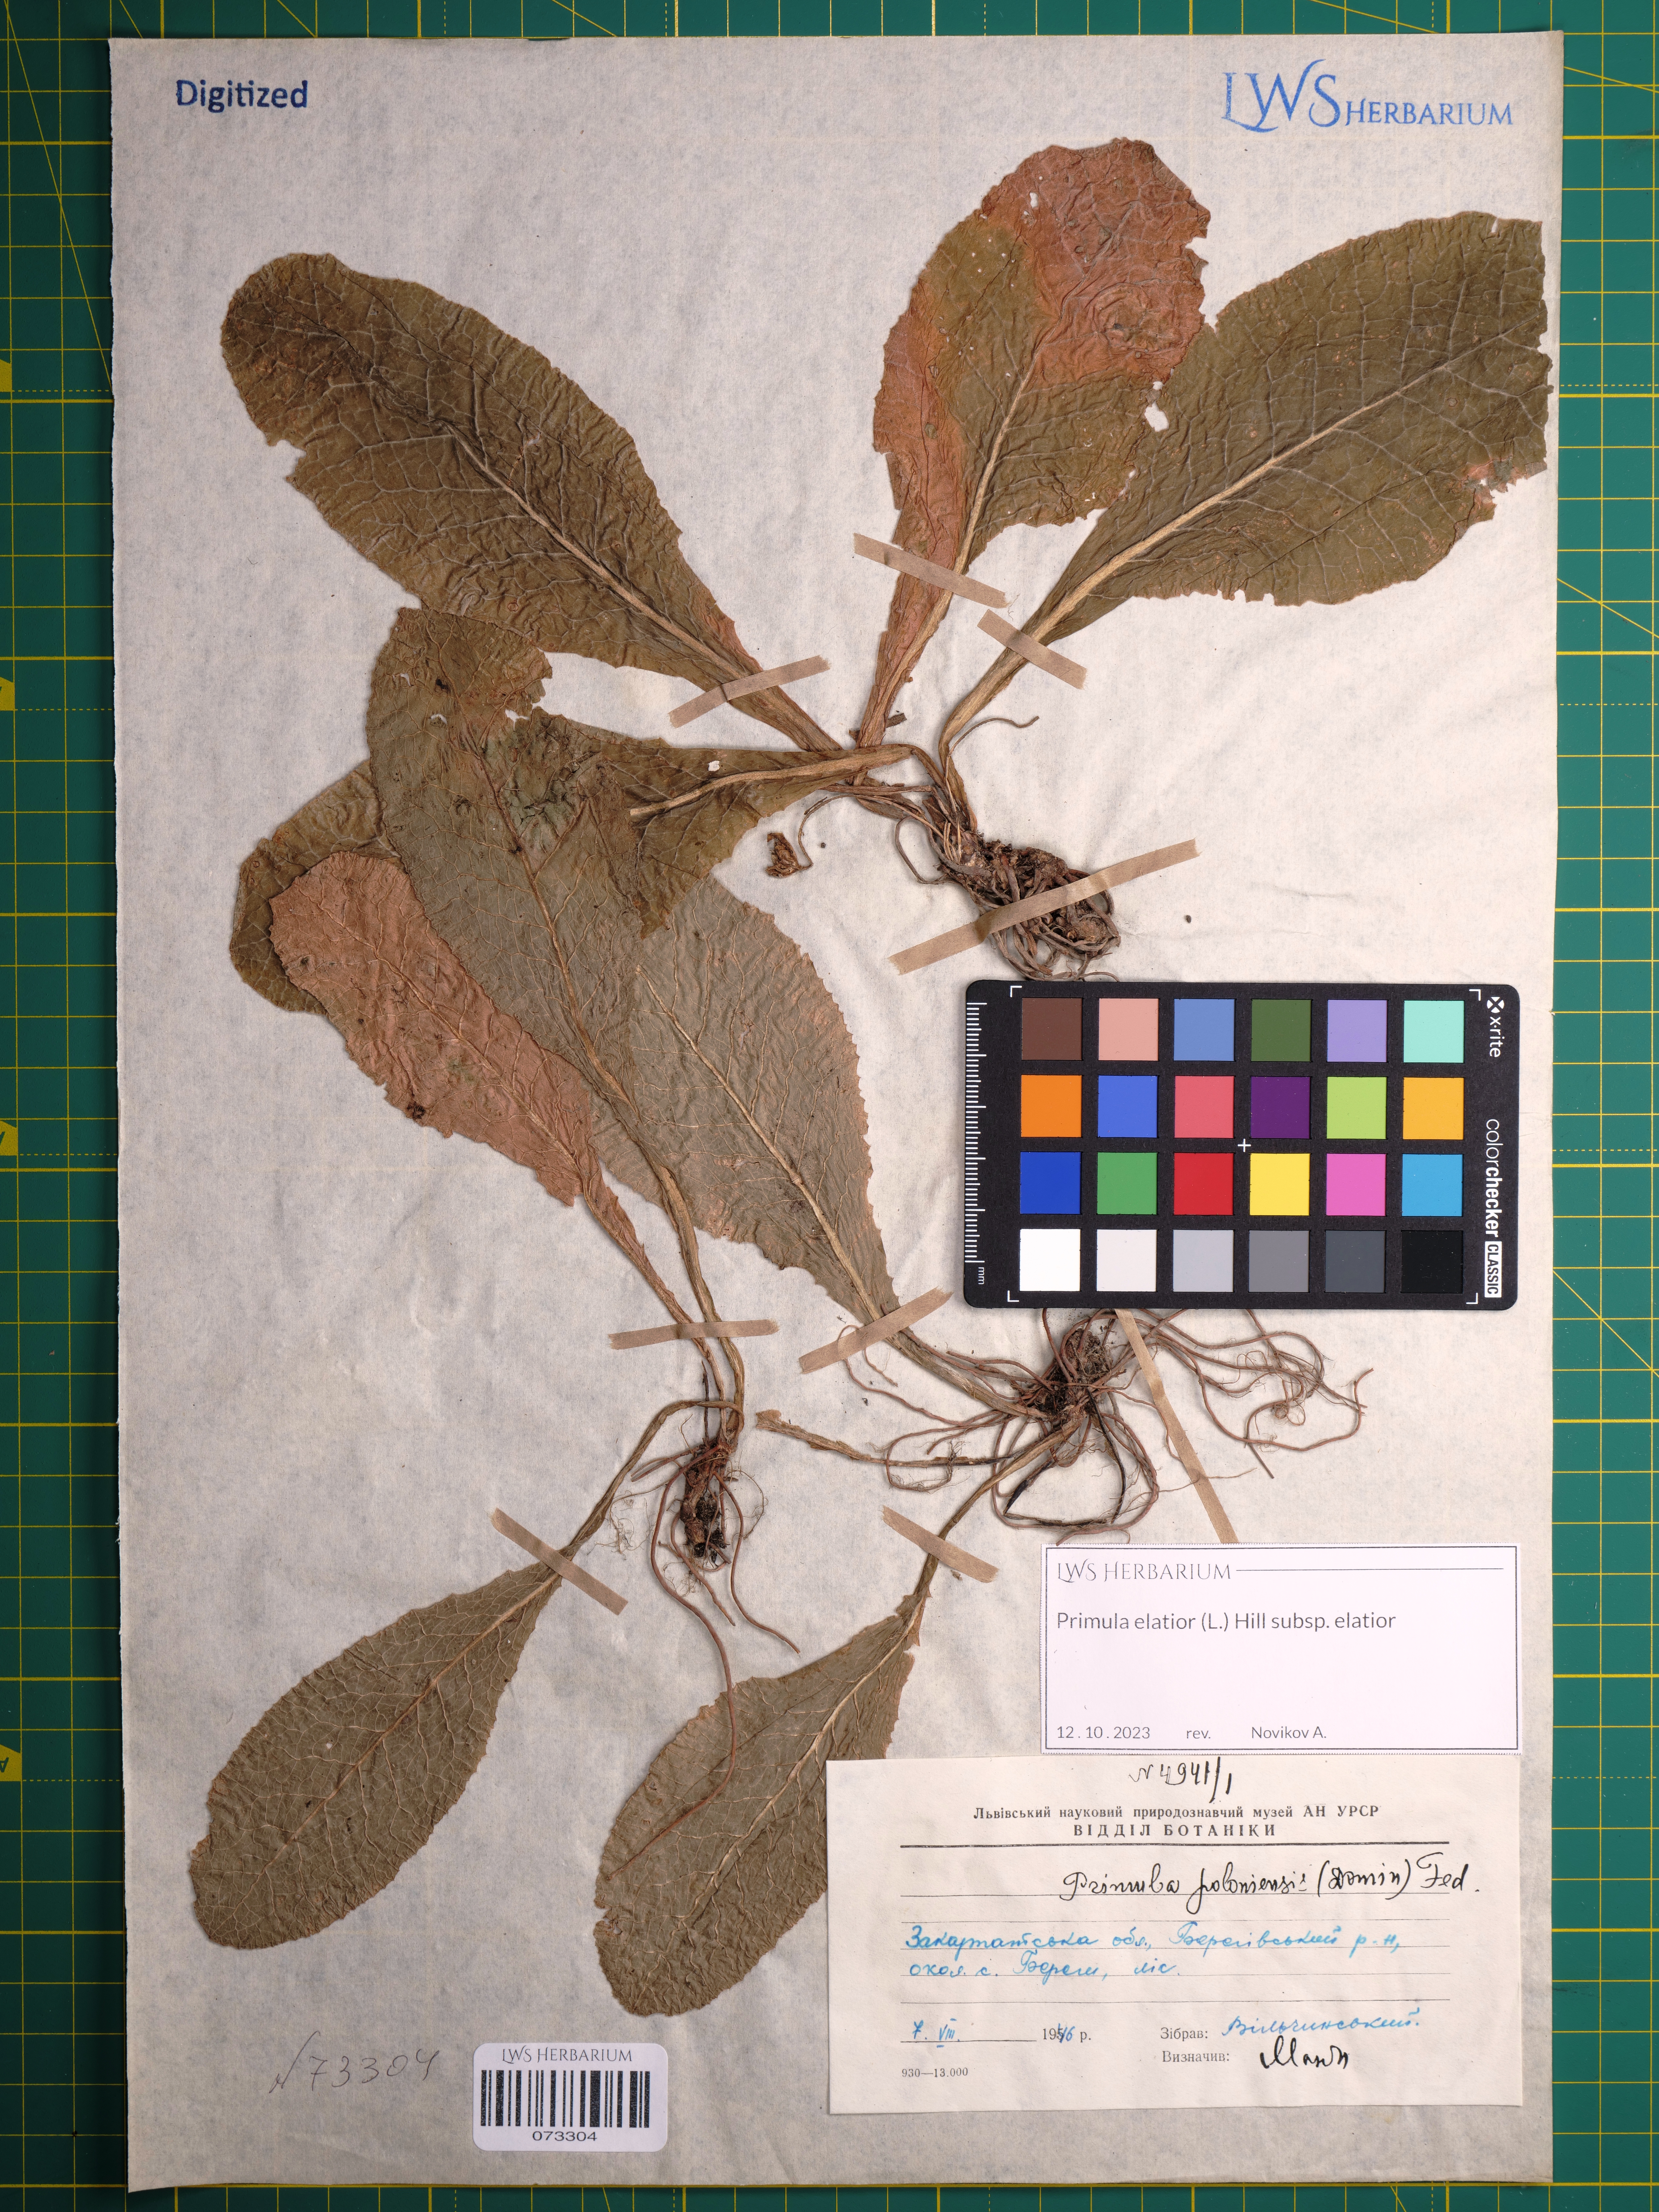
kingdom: Plantae
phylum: Tracheophyta
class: Magnoliopsida
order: Ericales
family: Primulaceae
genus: Primula
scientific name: Primula elatior
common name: Oxlip
